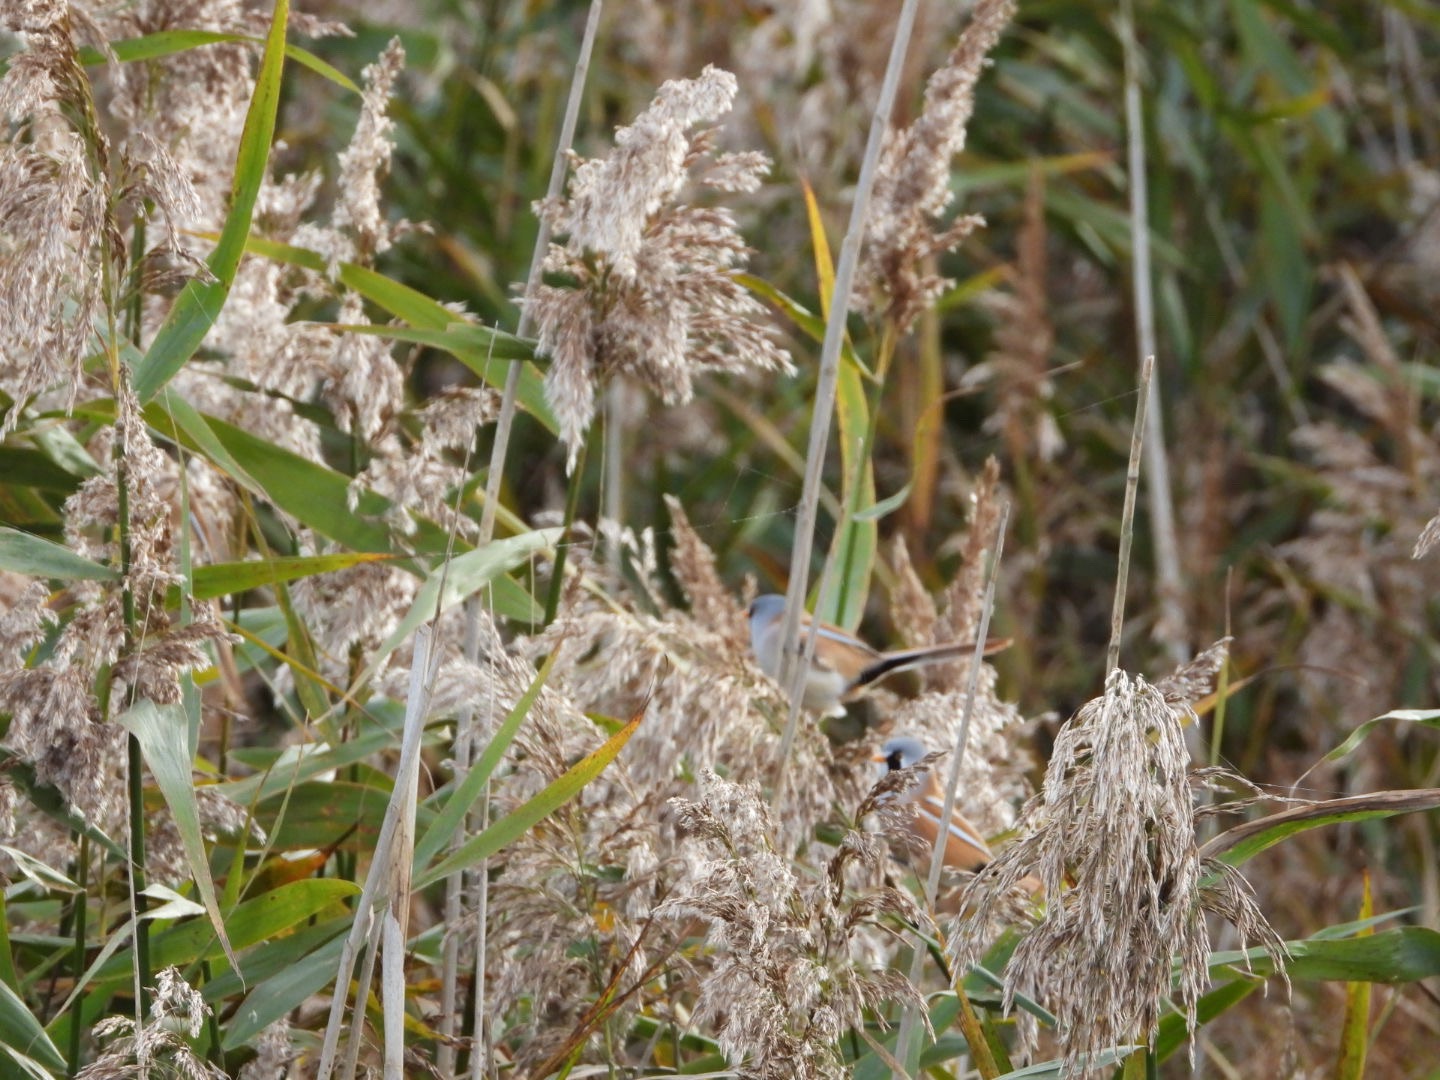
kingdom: Animalia
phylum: Chordata
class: Aves
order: Passeriformes
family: Panuridae
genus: Panurus
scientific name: Panurus biarmicus
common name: Skægmejse
